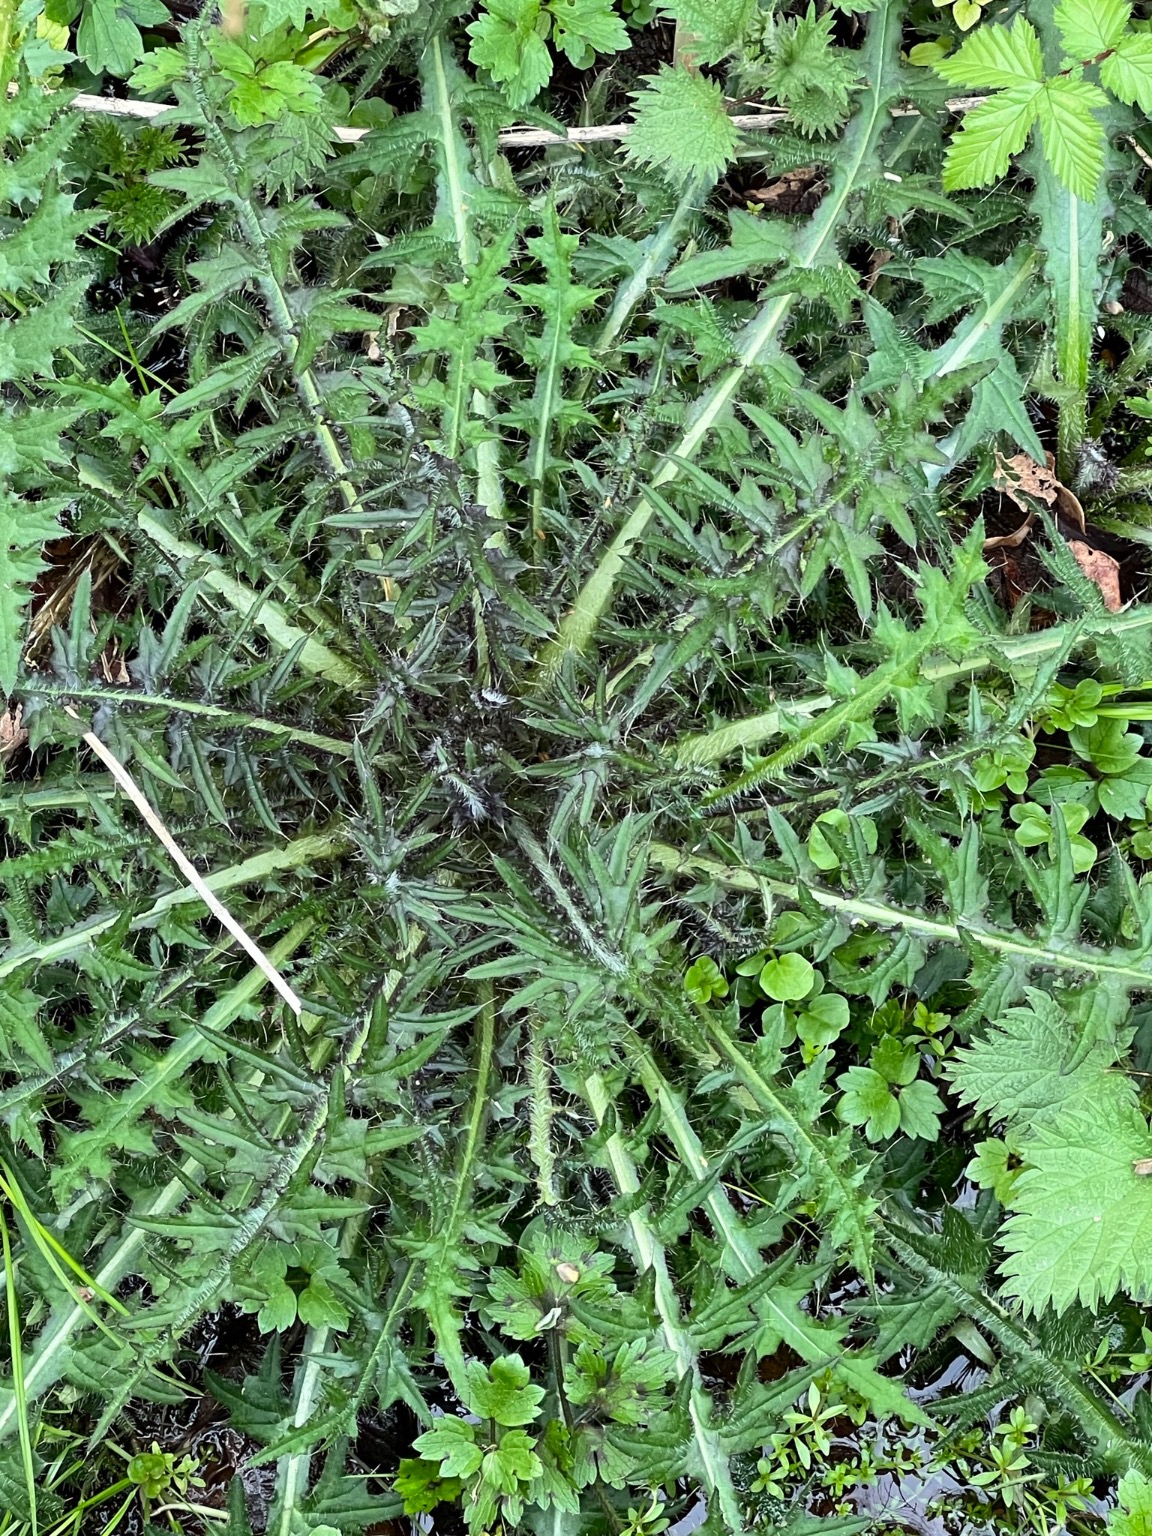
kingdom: Plantae
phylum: Tracheophyta
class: Magnoliopsida
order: Asterales
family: Asteraceae
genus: Cirsium
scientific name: Cirsium palustre
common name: Kær-tidsel
